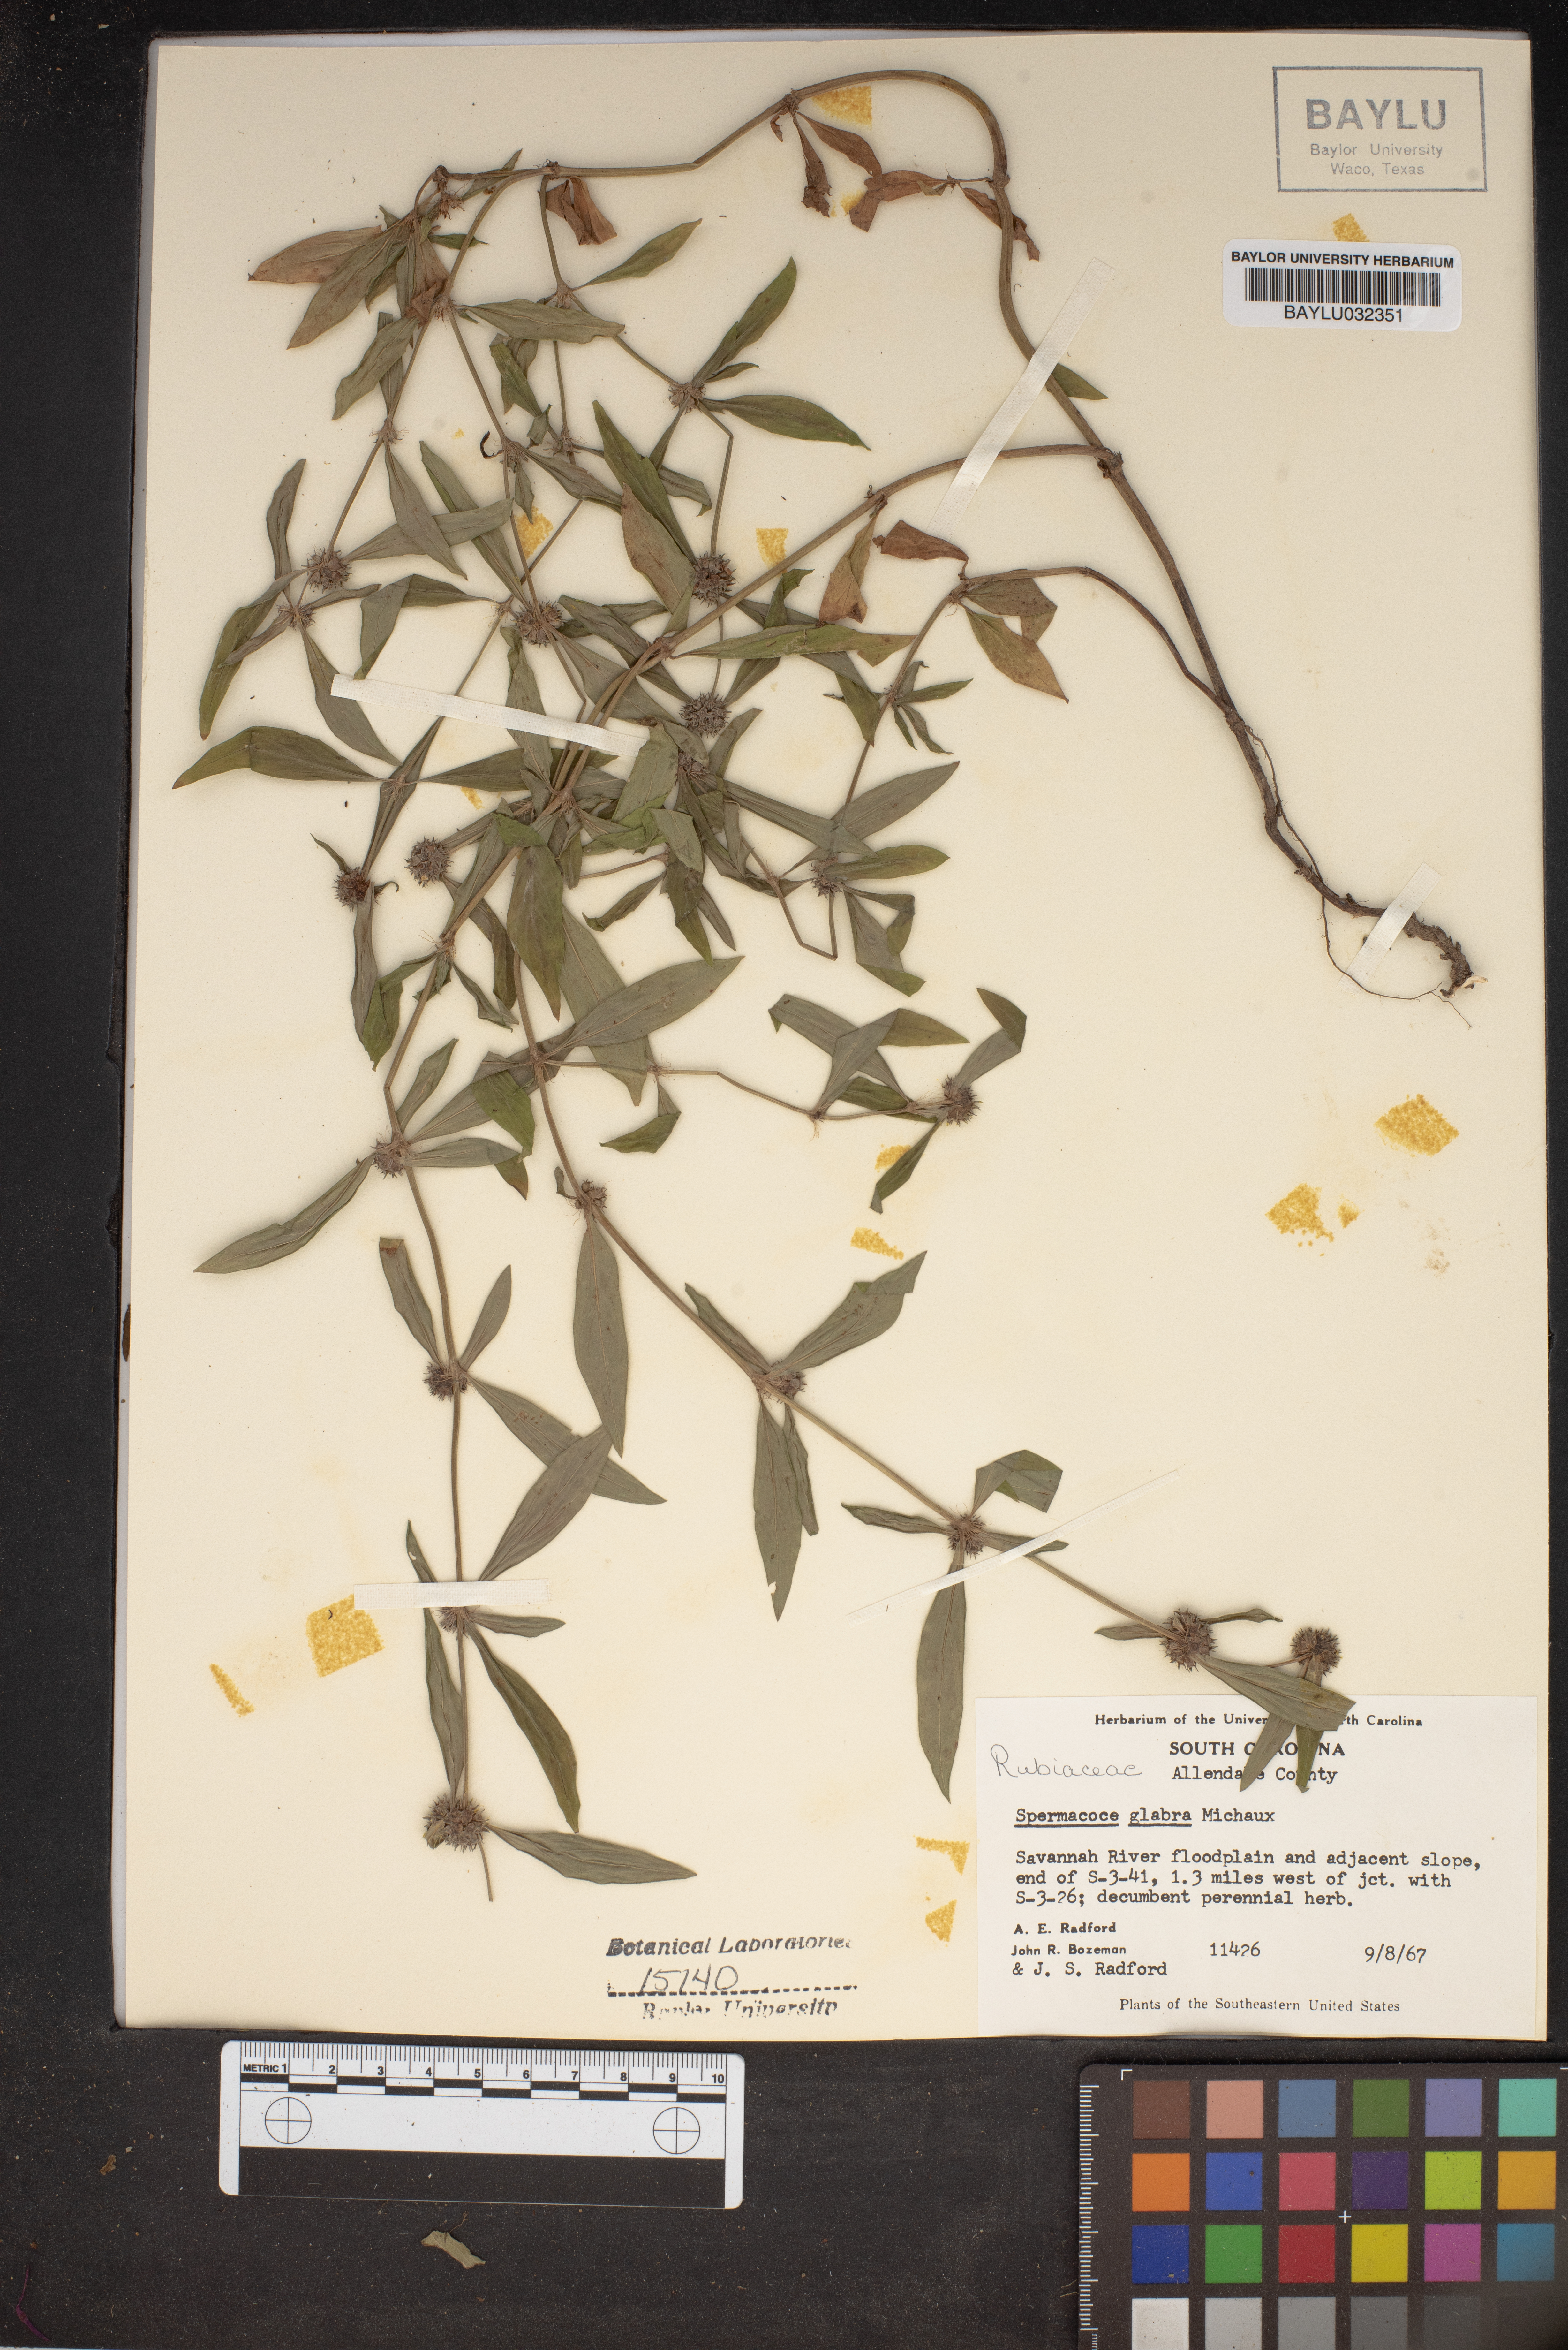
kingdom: Plantae
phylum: Tracheophyta
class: Magnoliopsida
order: Gentianales
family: Rubiaceae
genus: Spermacoce
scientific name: Spermacoce glabra
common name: Smooth buttonweed
